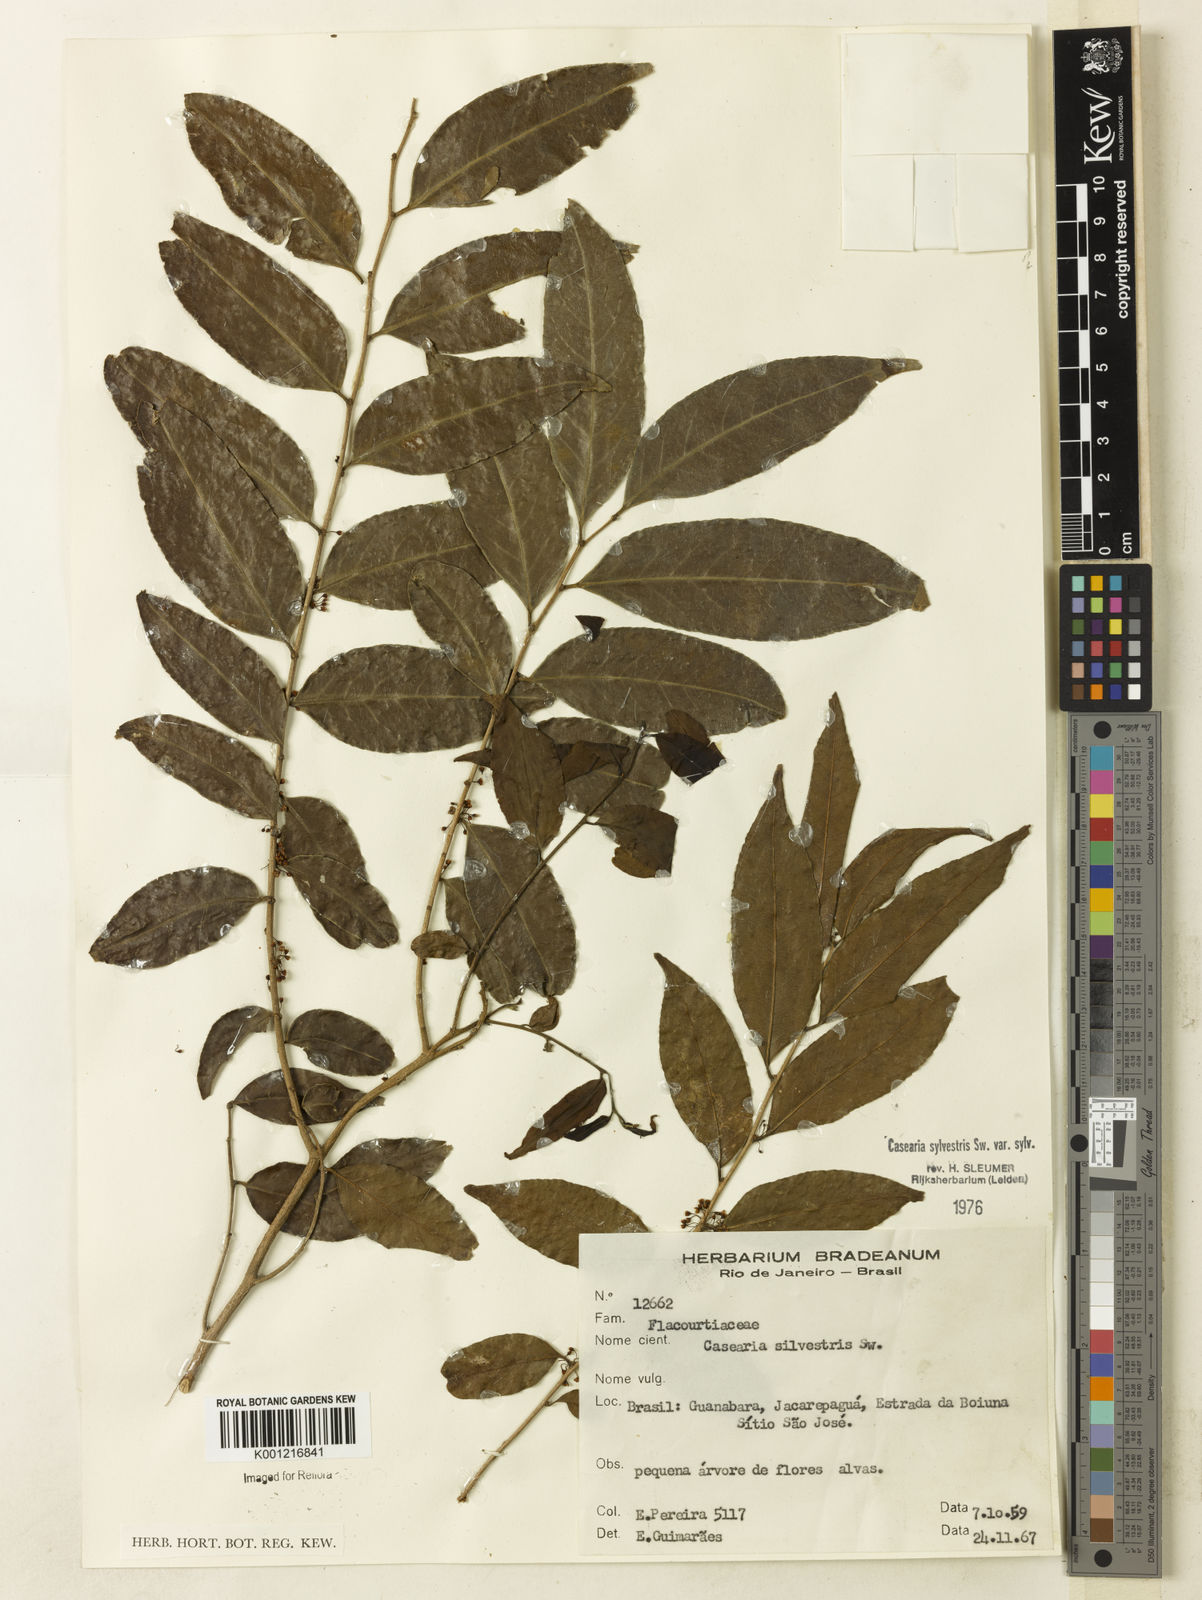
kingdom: Plantae
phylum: Tracheophyta
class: Magnoliopsida
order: Malpighiales
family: Salicaceae
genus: Casearia
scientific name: Casearia sylvestris
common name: Wild sage
